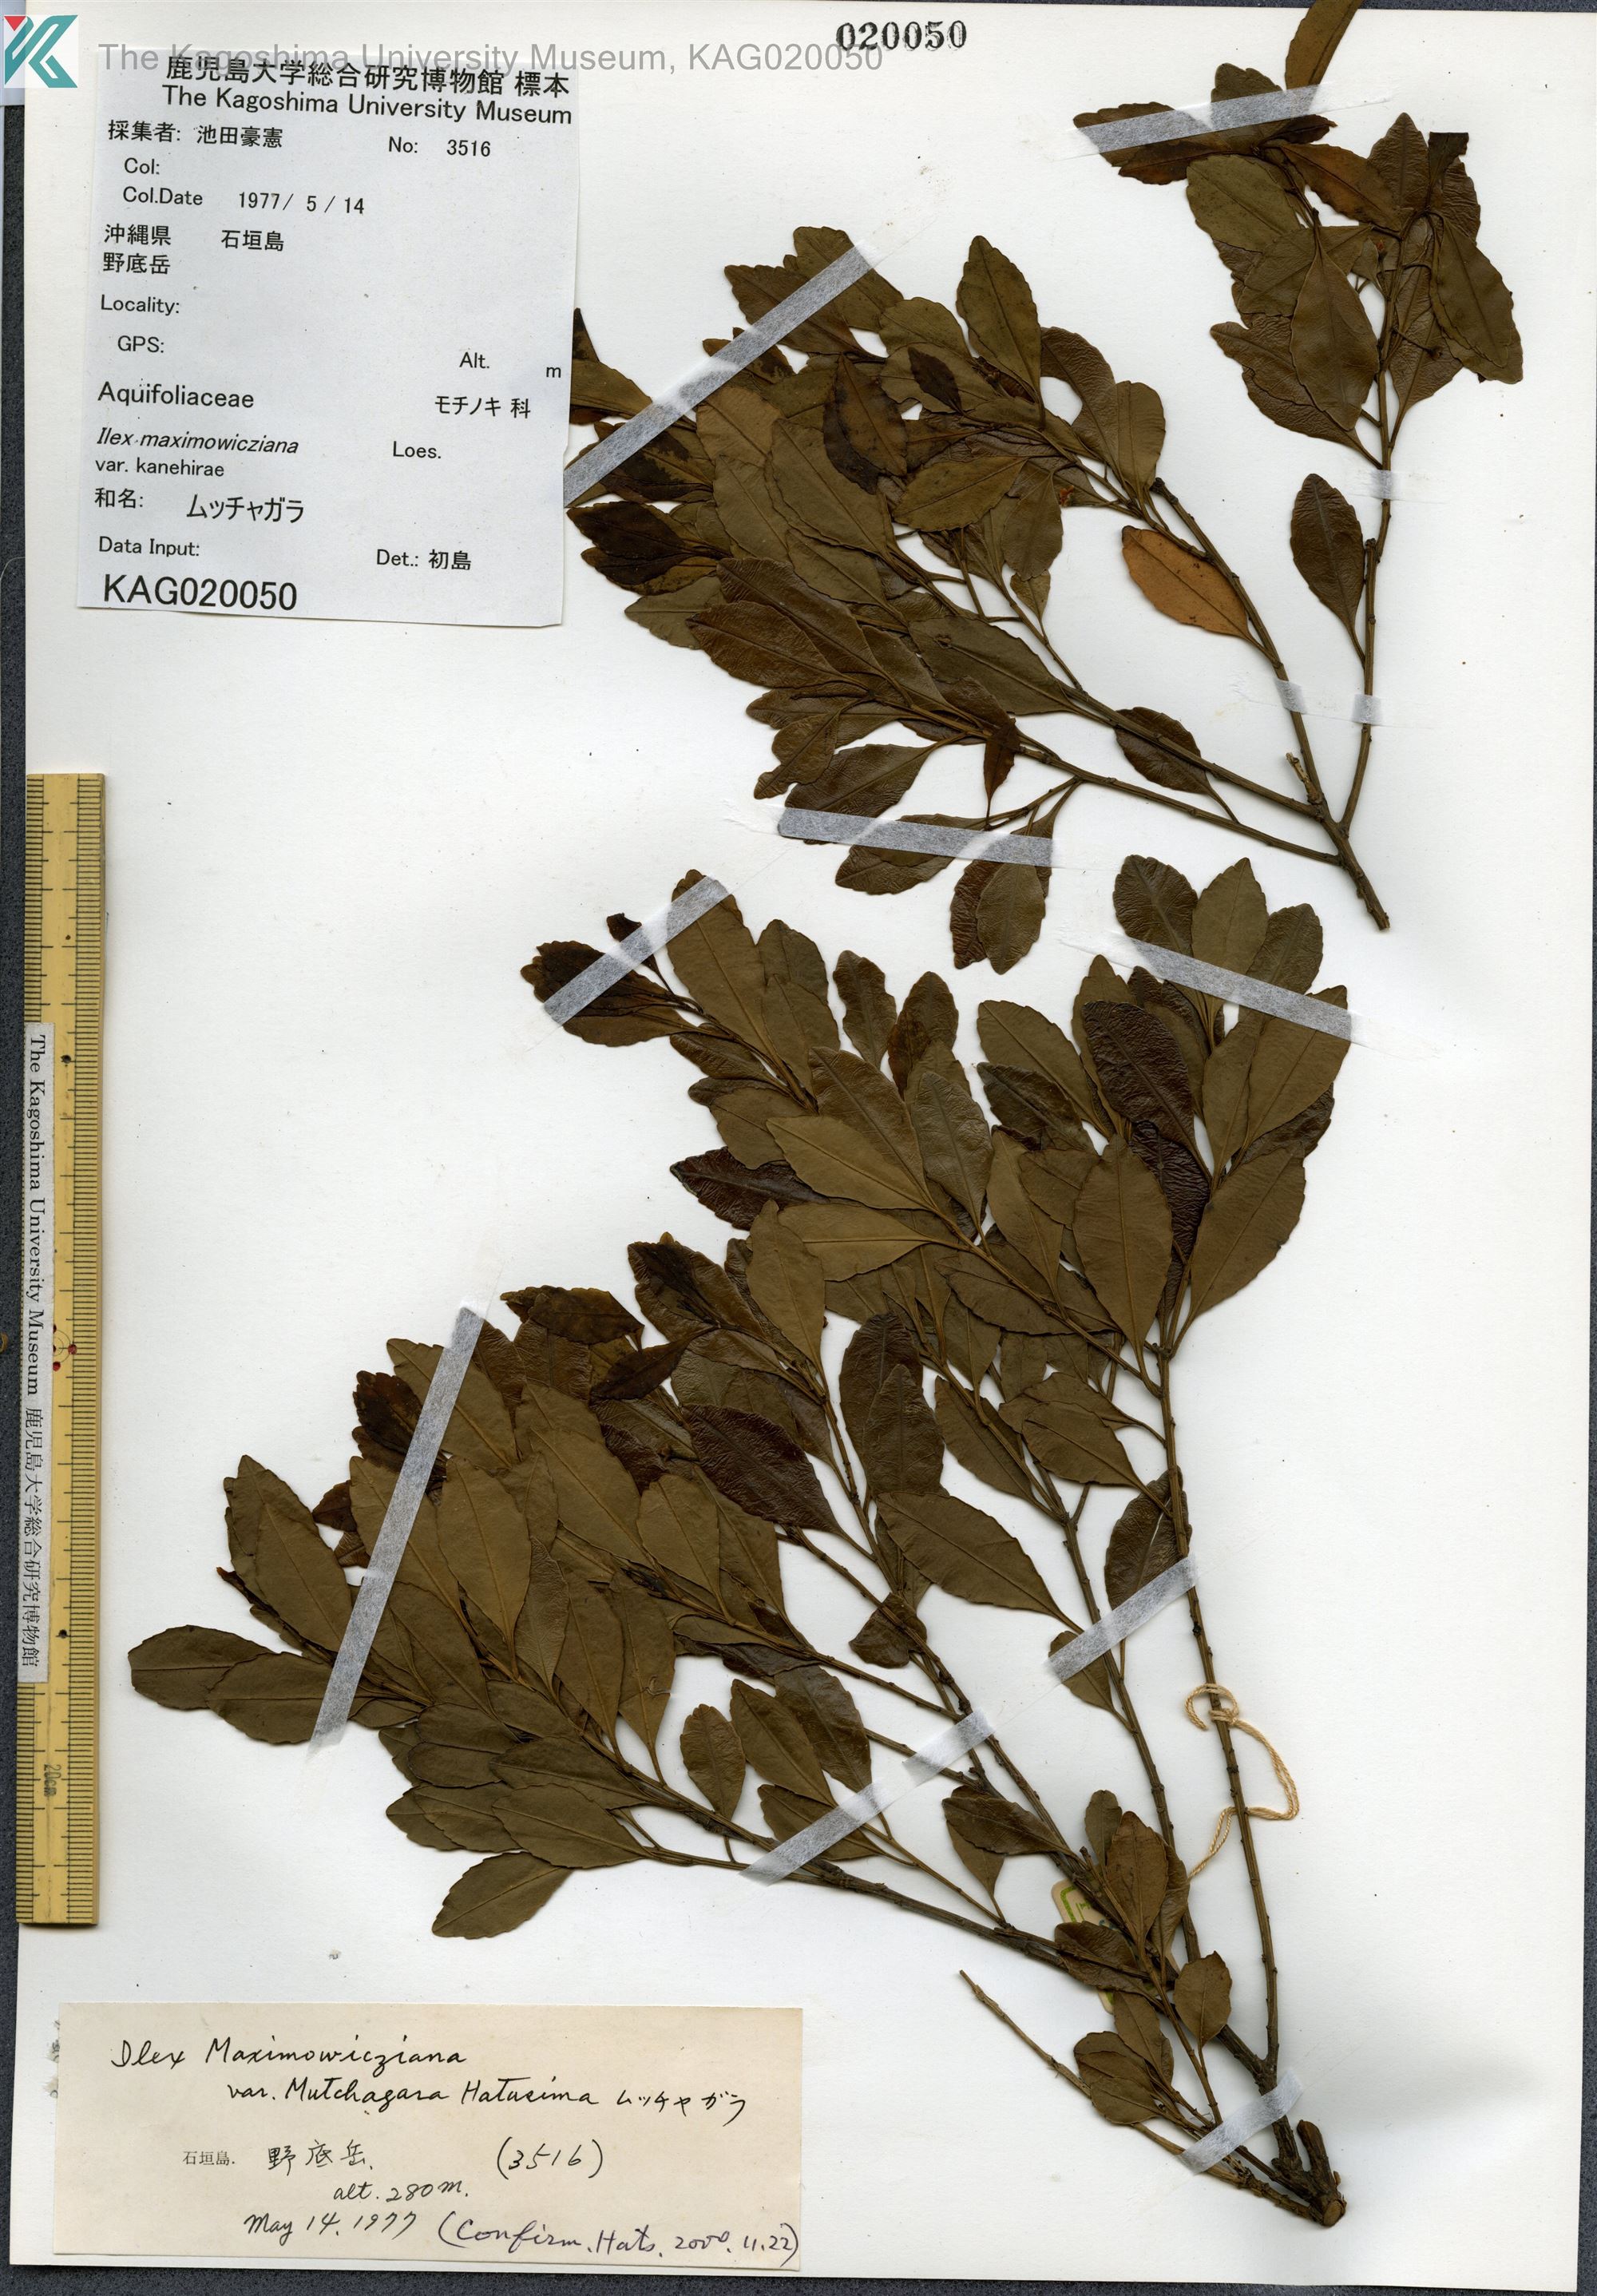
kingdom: Plantae
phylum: Tracheophyta
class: Magnoliopsida
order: Aquifoliales
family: Aquifoliaceae
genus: Ilex
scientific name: Ilex maximowicziana
